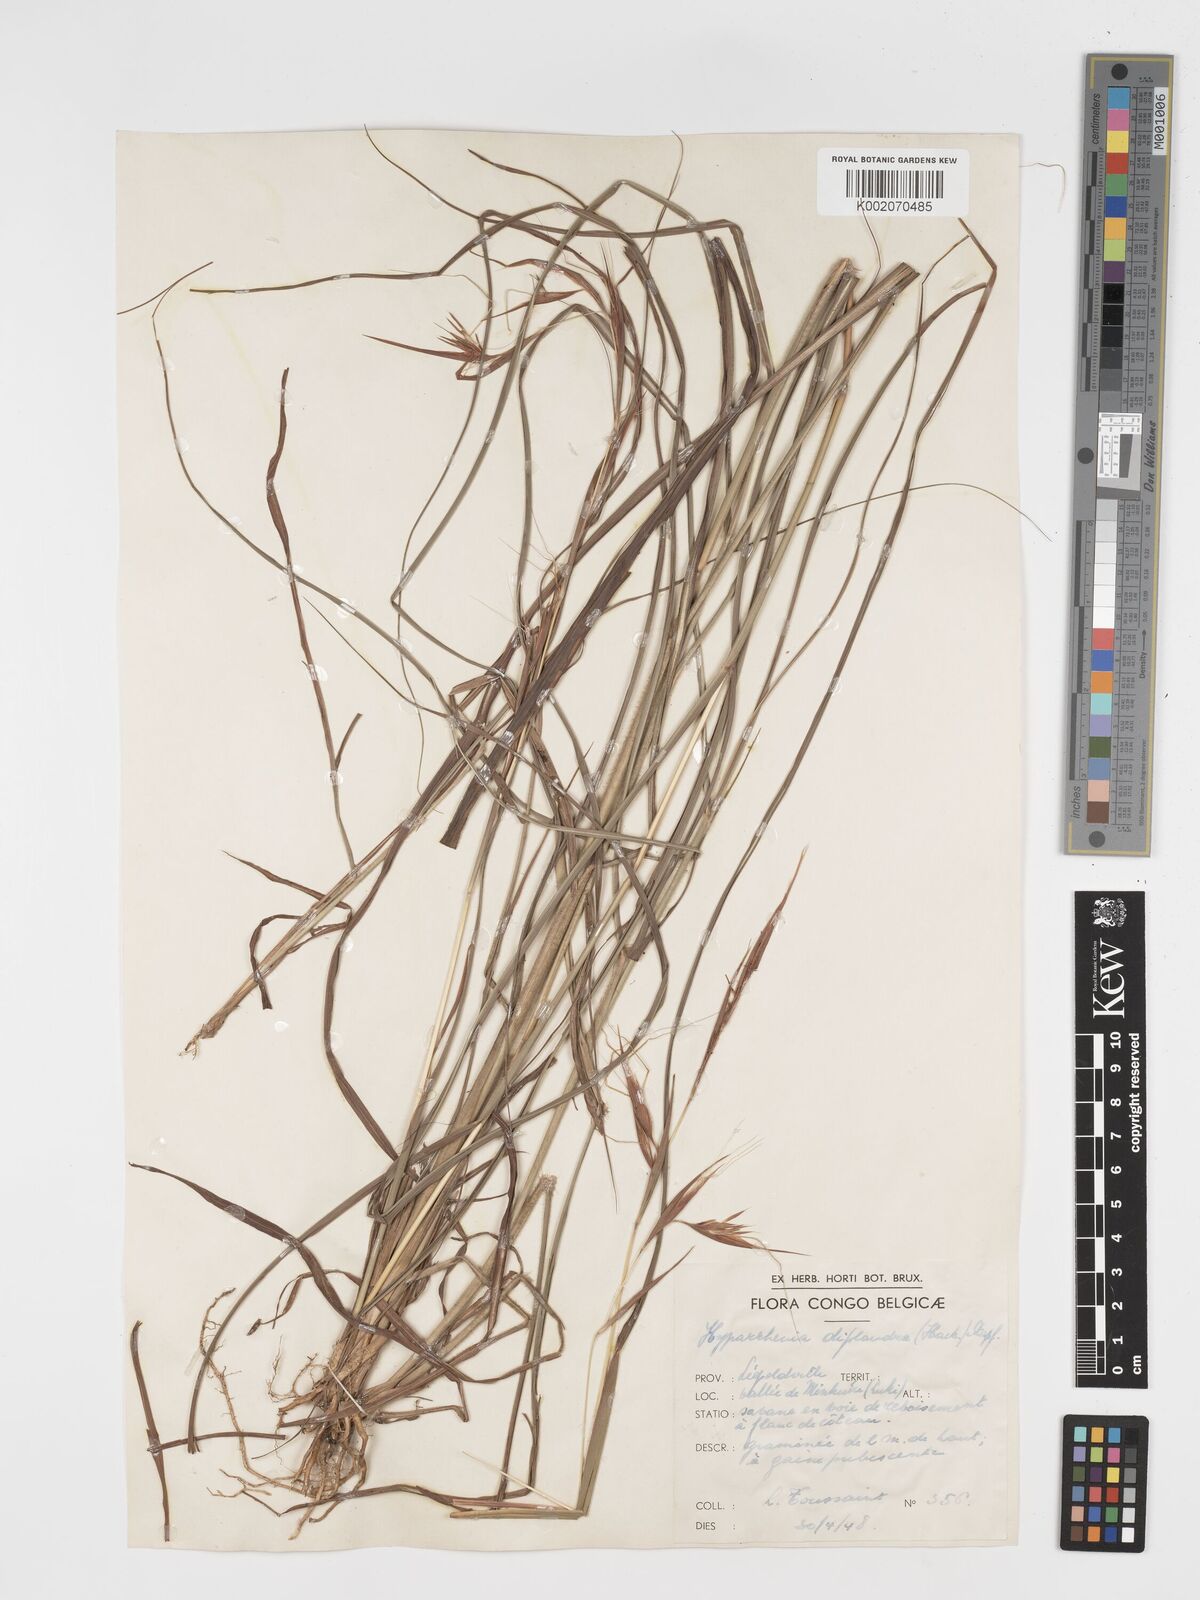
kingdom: Plantae
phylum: Tracheophyta
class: Liliopsida
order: Poales
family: Poaceae
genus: Hyparrhenia
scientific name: Hyparrhenia diplandra
